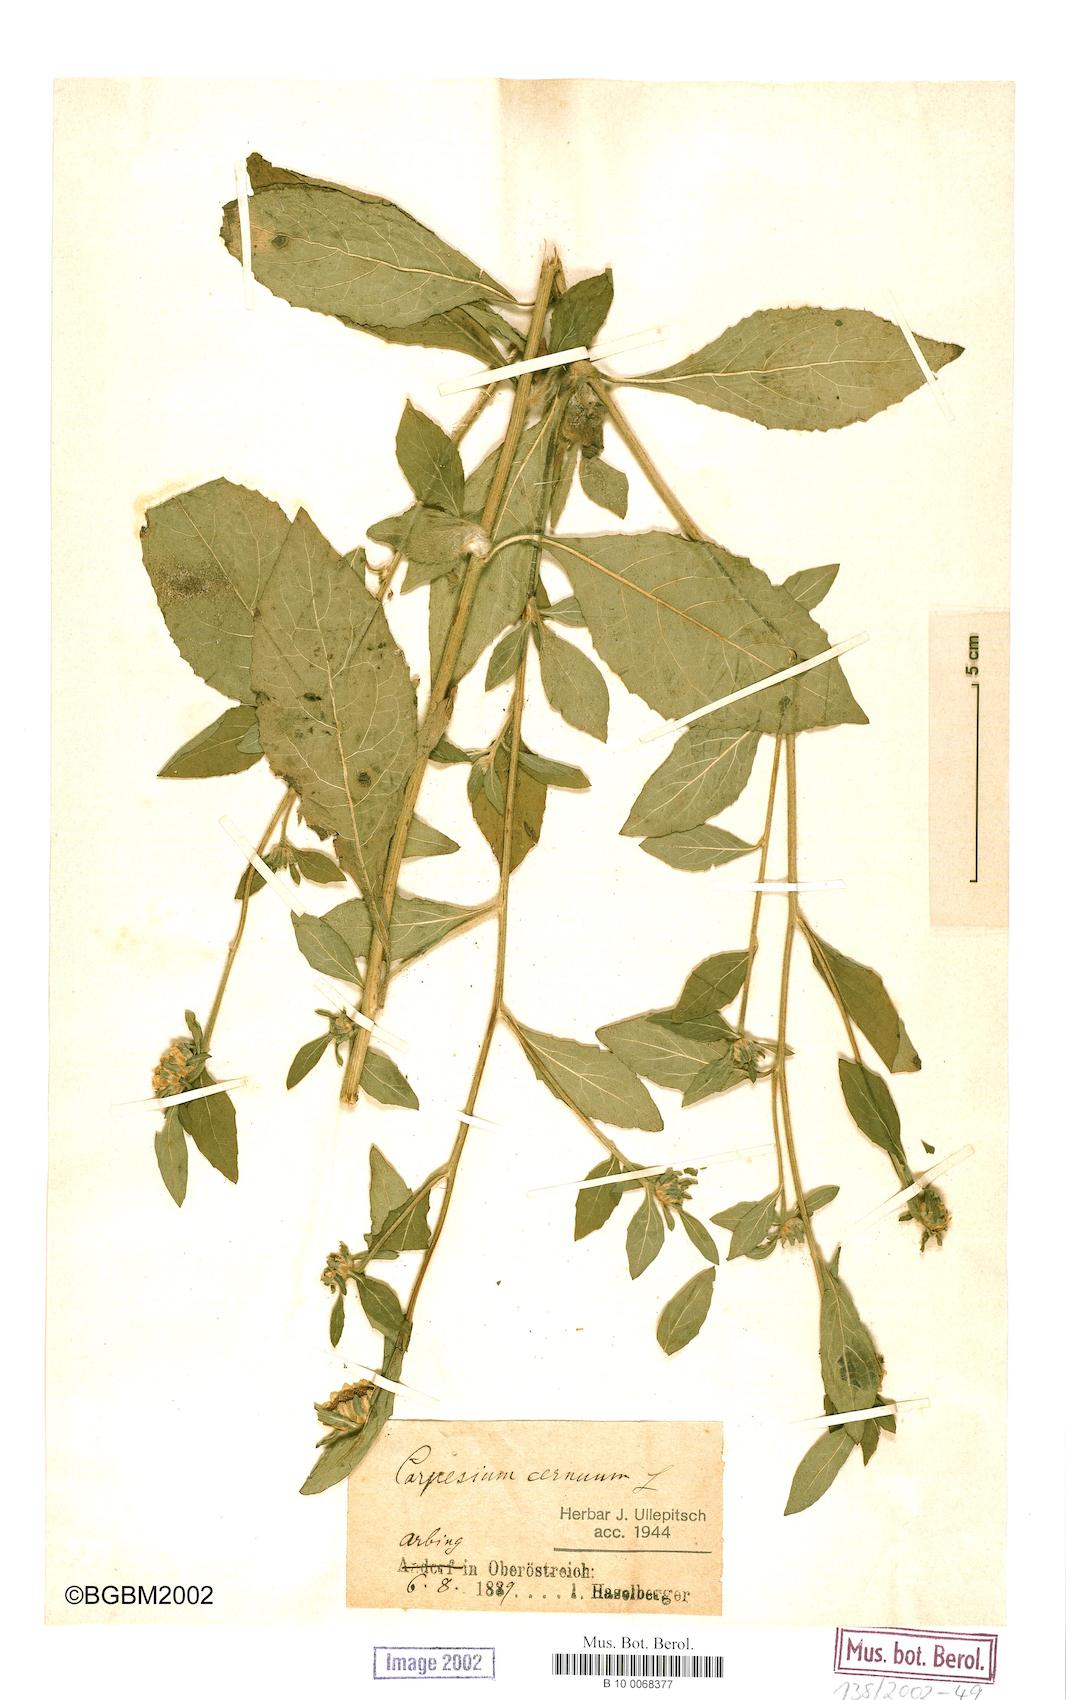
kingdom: Plantae
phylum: Tracheophyta
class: Magnoliopsida
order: Asterales
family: Asteraceae
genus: Carpesium
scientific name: Carpesium cernuum
